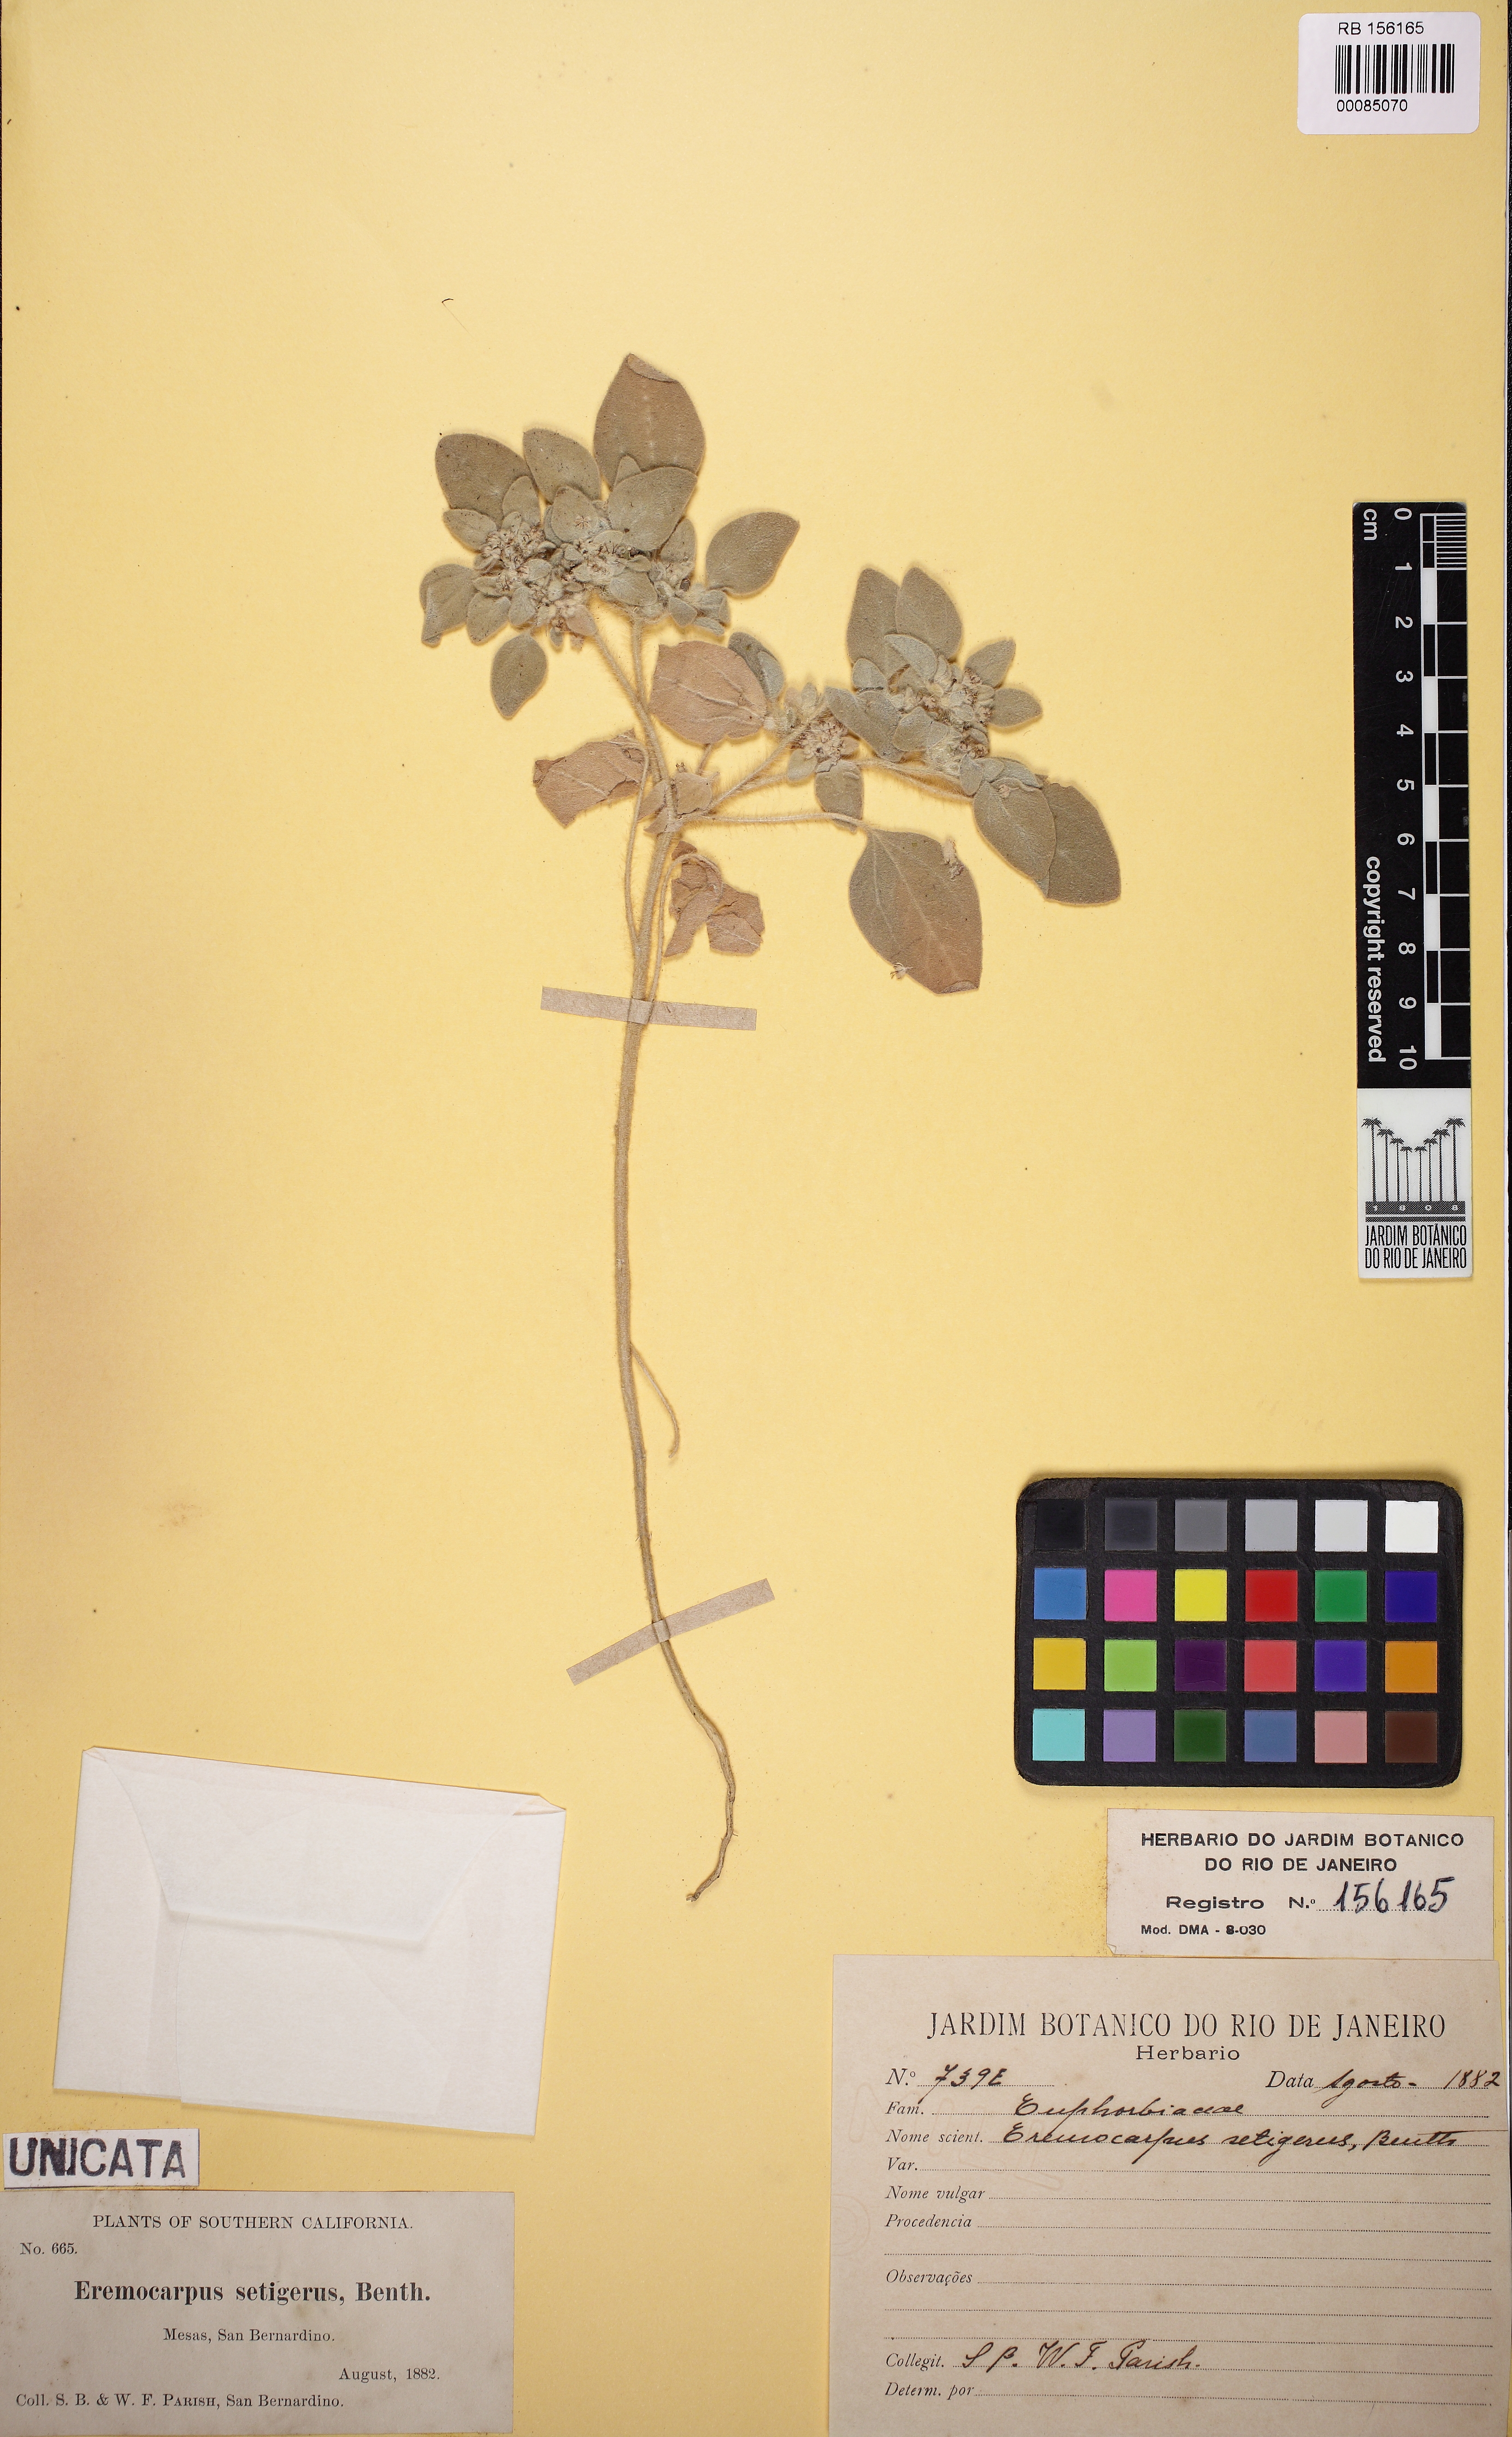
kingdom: Plantae
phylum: Tracheophyta
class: Magnoliopsida
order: Malpighiales
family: Euphorbiaceae
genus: Croton
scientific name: Croton setigerus
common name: Doveweed
